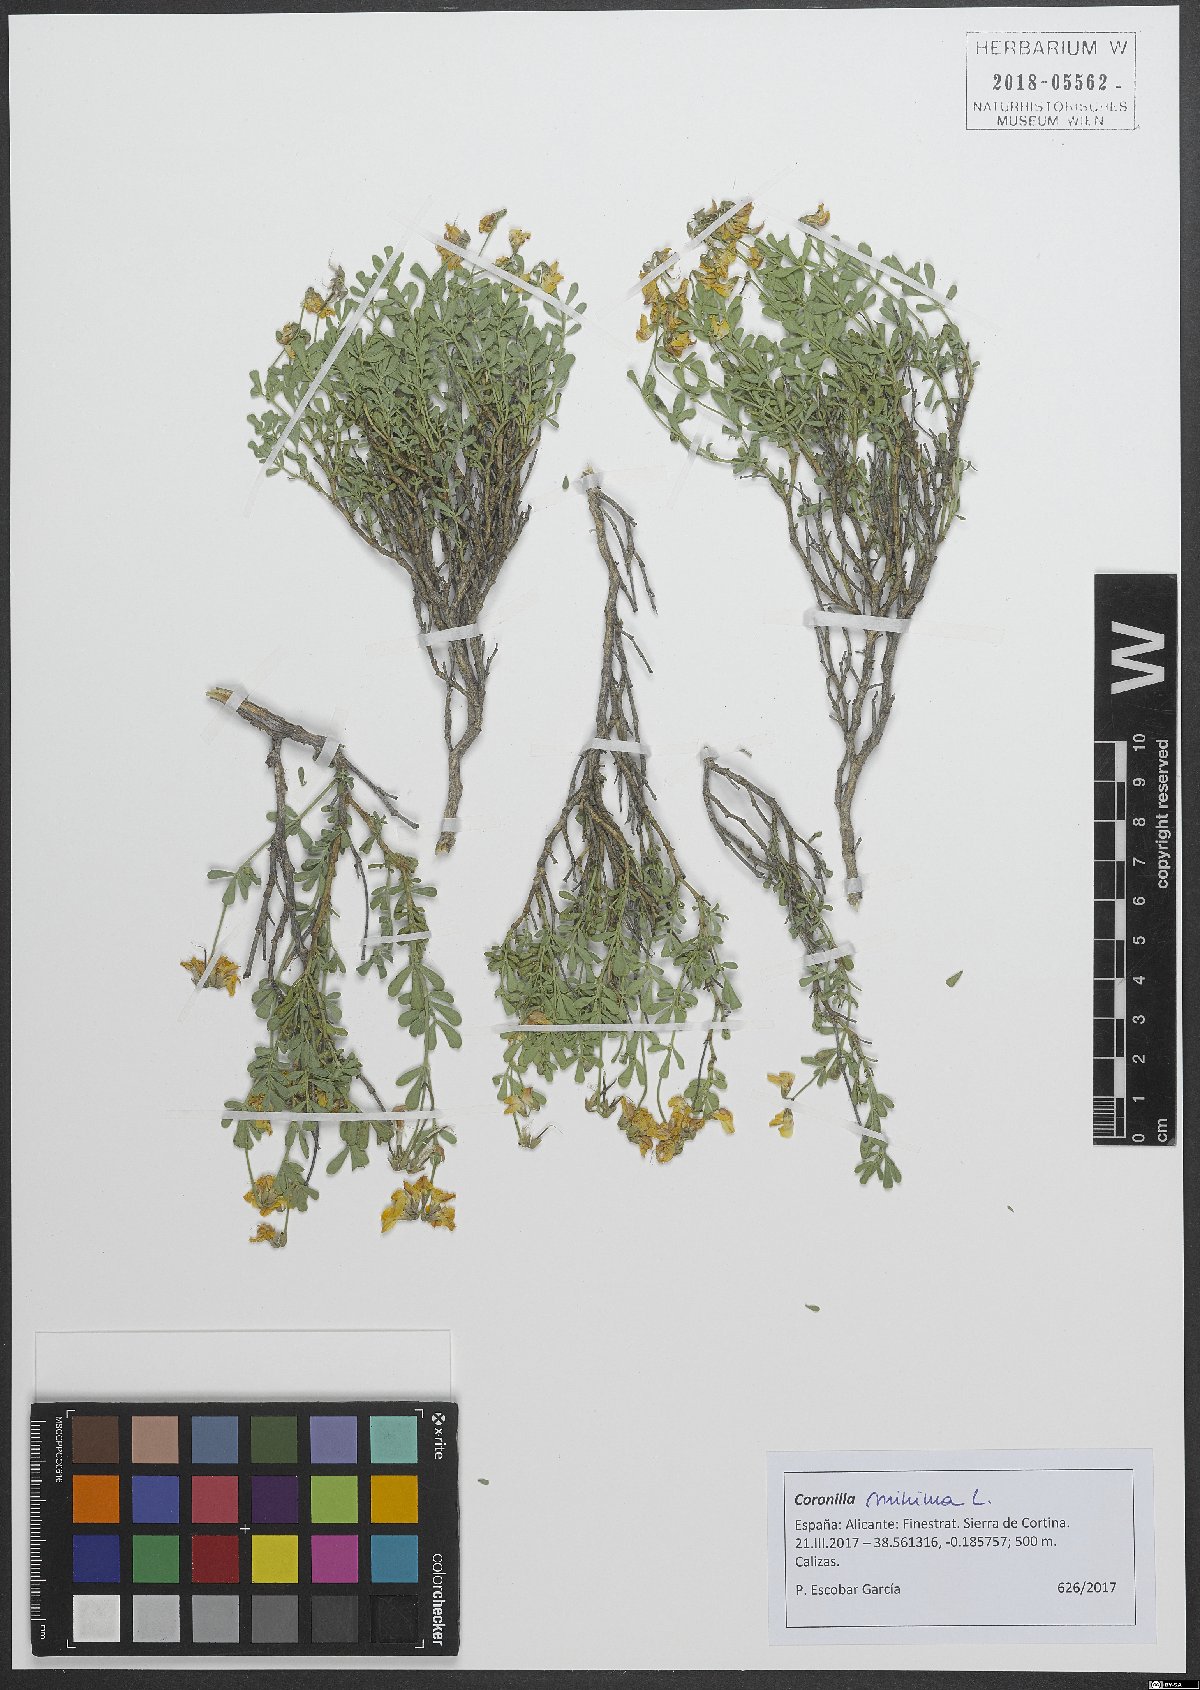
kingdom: Plantae
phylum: Tracheophyta
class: Magnoliopsida
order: Fabales
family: Fabaceae
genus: Coronilla
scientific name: Coronilla minima
